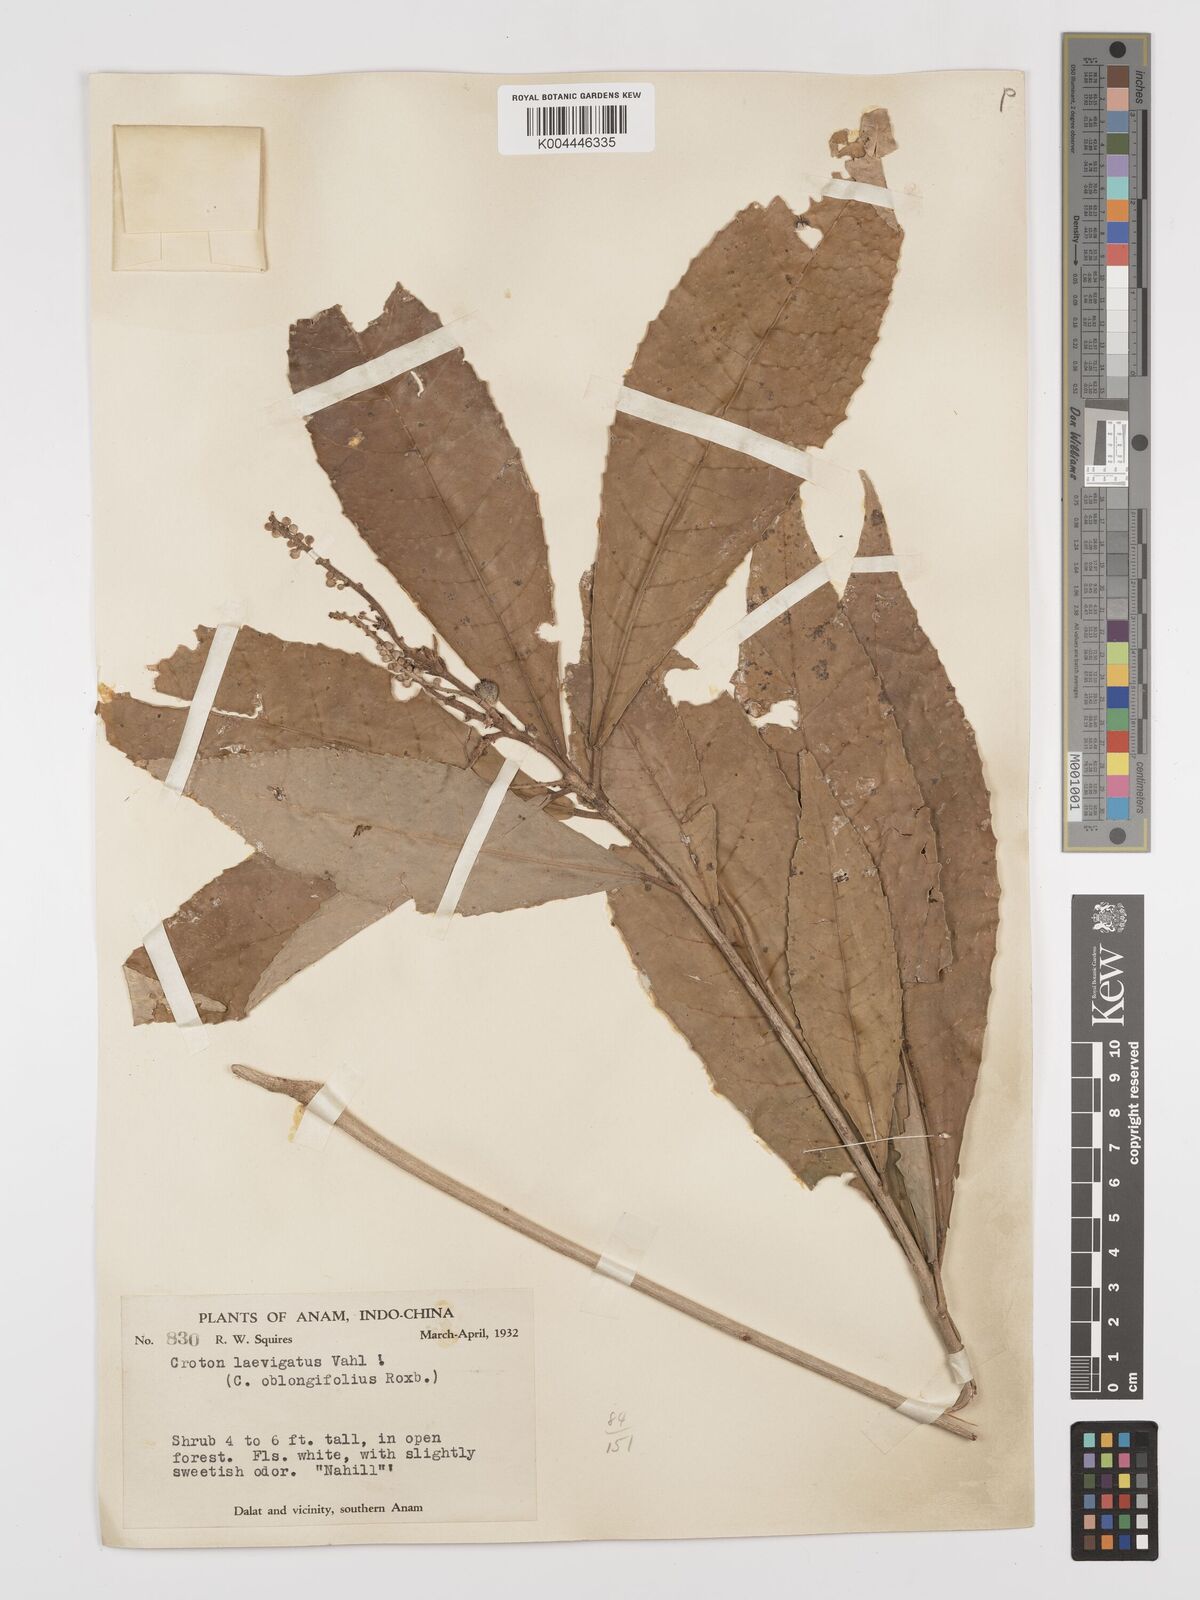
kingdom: Plantae
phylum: Tracheophyta
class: Magnoliopsida
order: Malpighiales
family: Euphorbiaceae
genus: Baliospermum
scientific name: Baliospermum solanifolium
